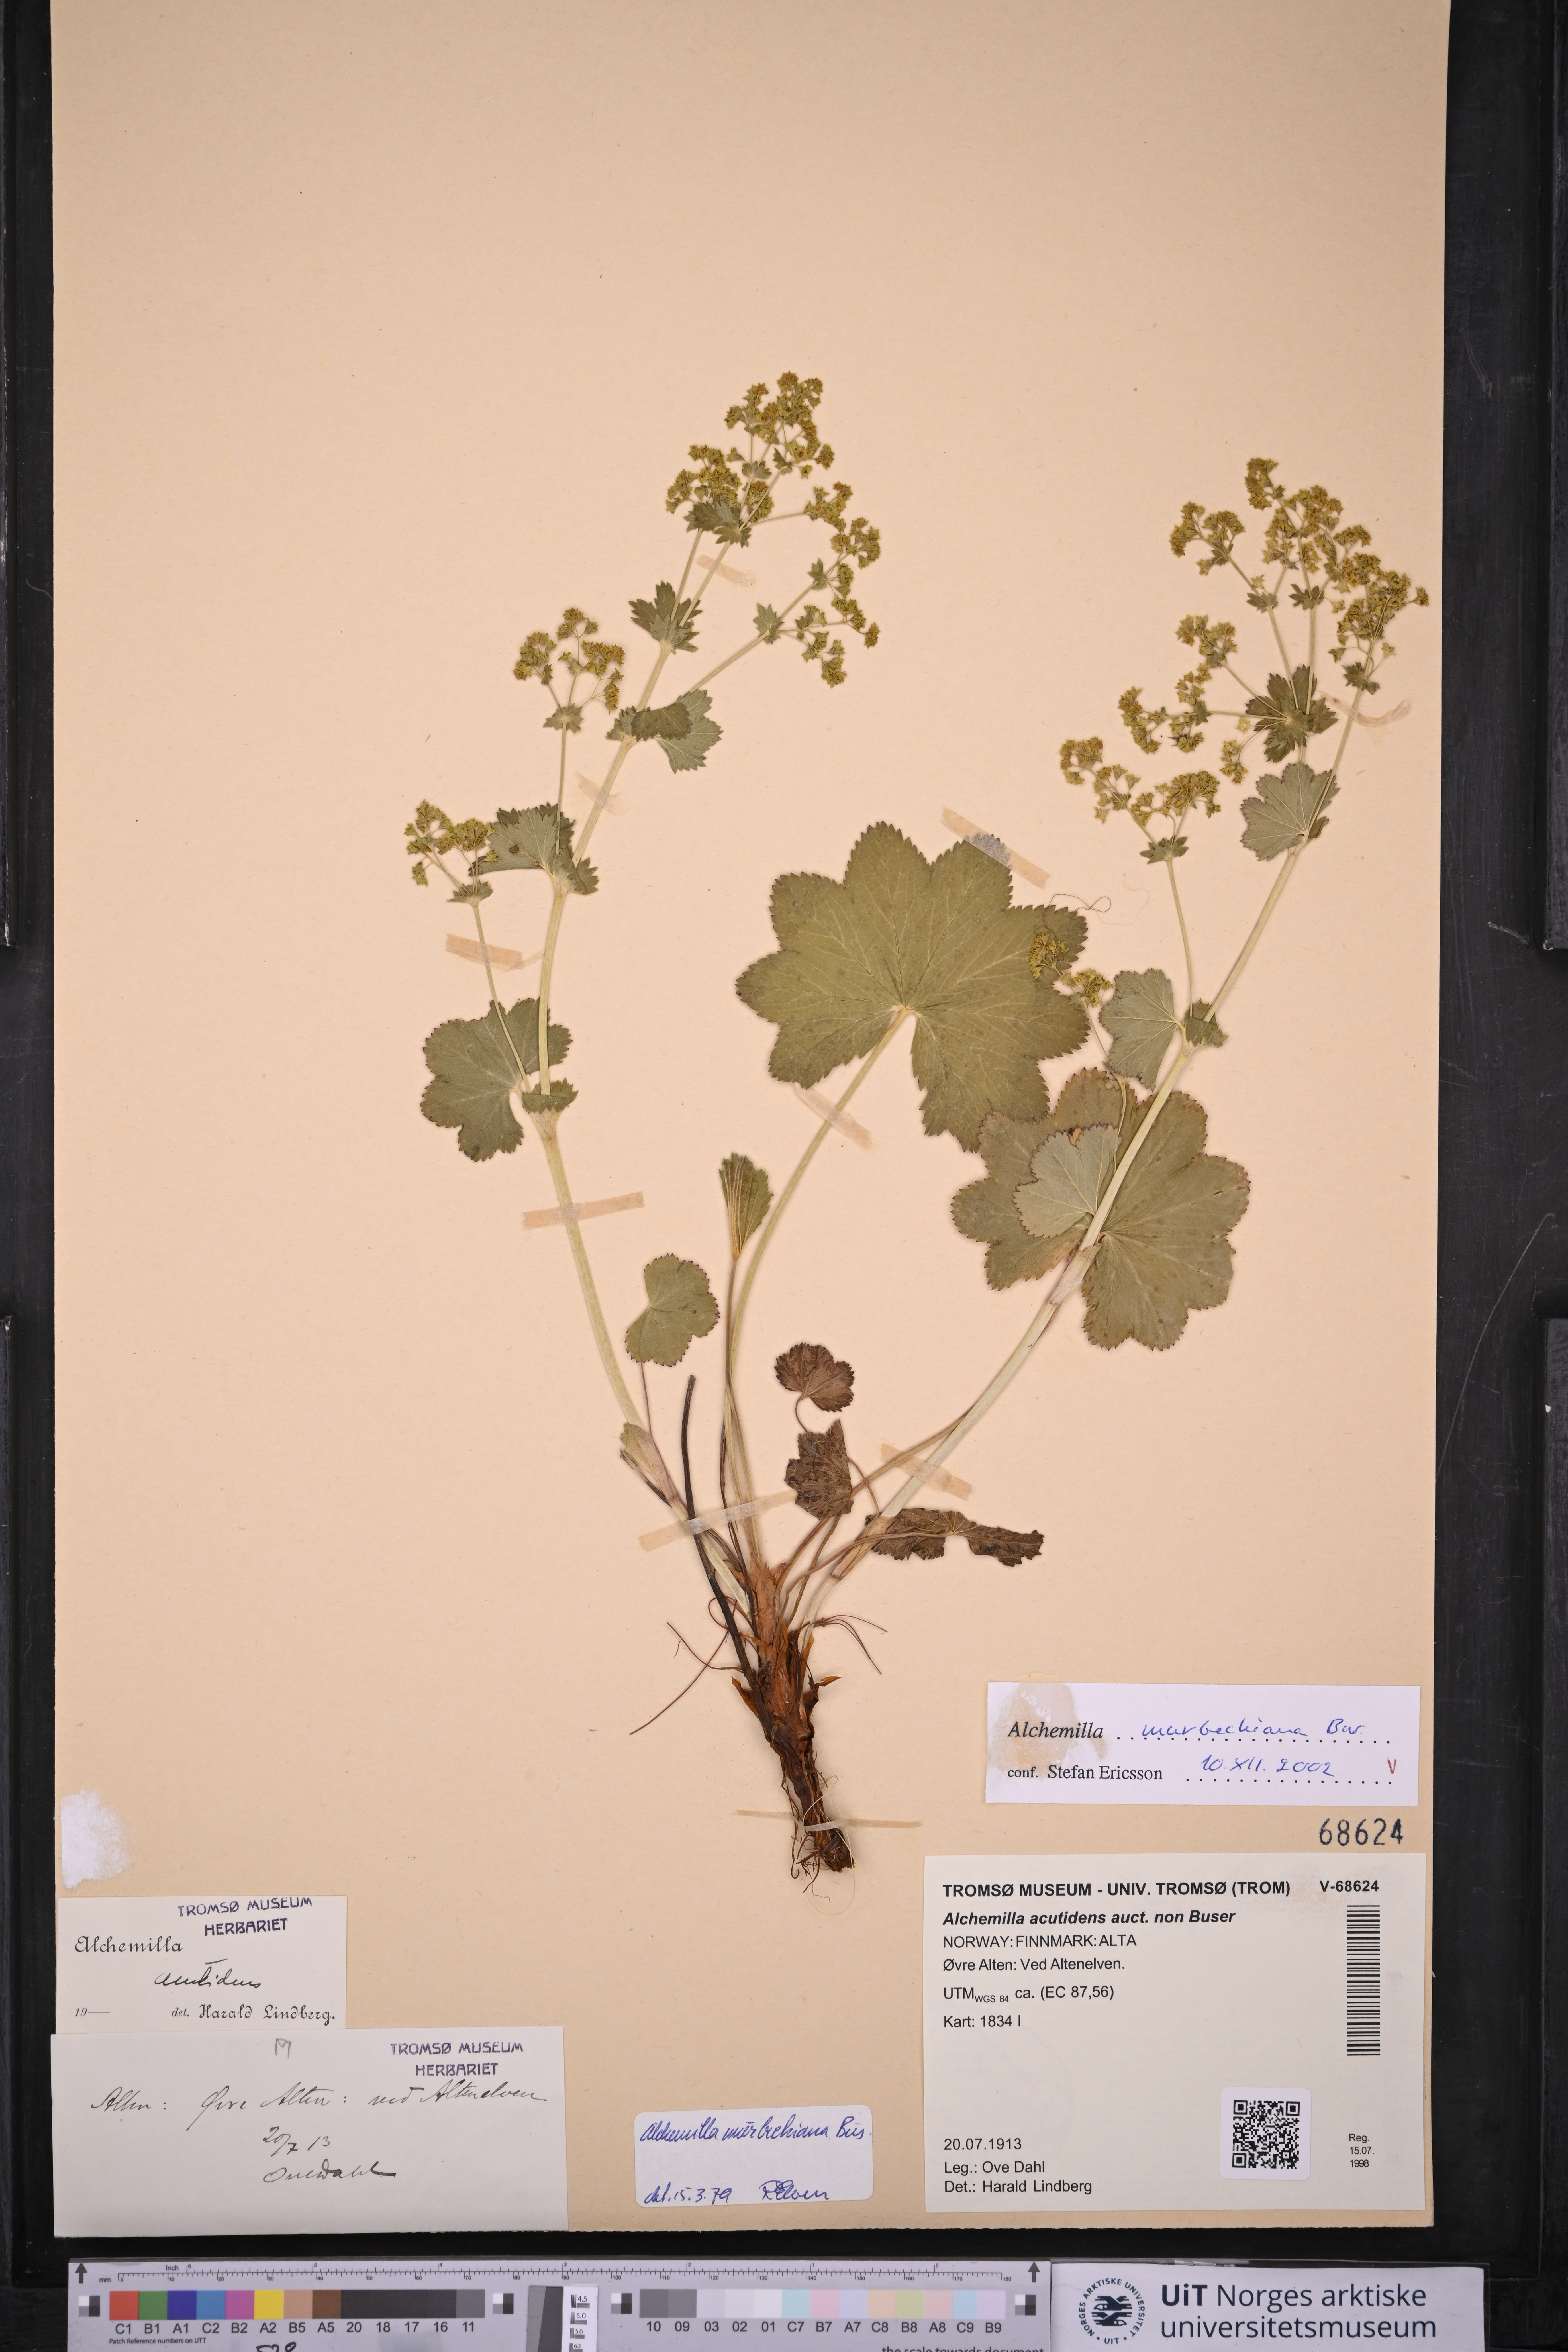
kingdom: Plantae
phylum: Tracheophyta
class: Magnoliopsida
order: Rosales
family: Rosaceae
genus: Alchemilla
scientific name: Alchemilla murbeckiana
